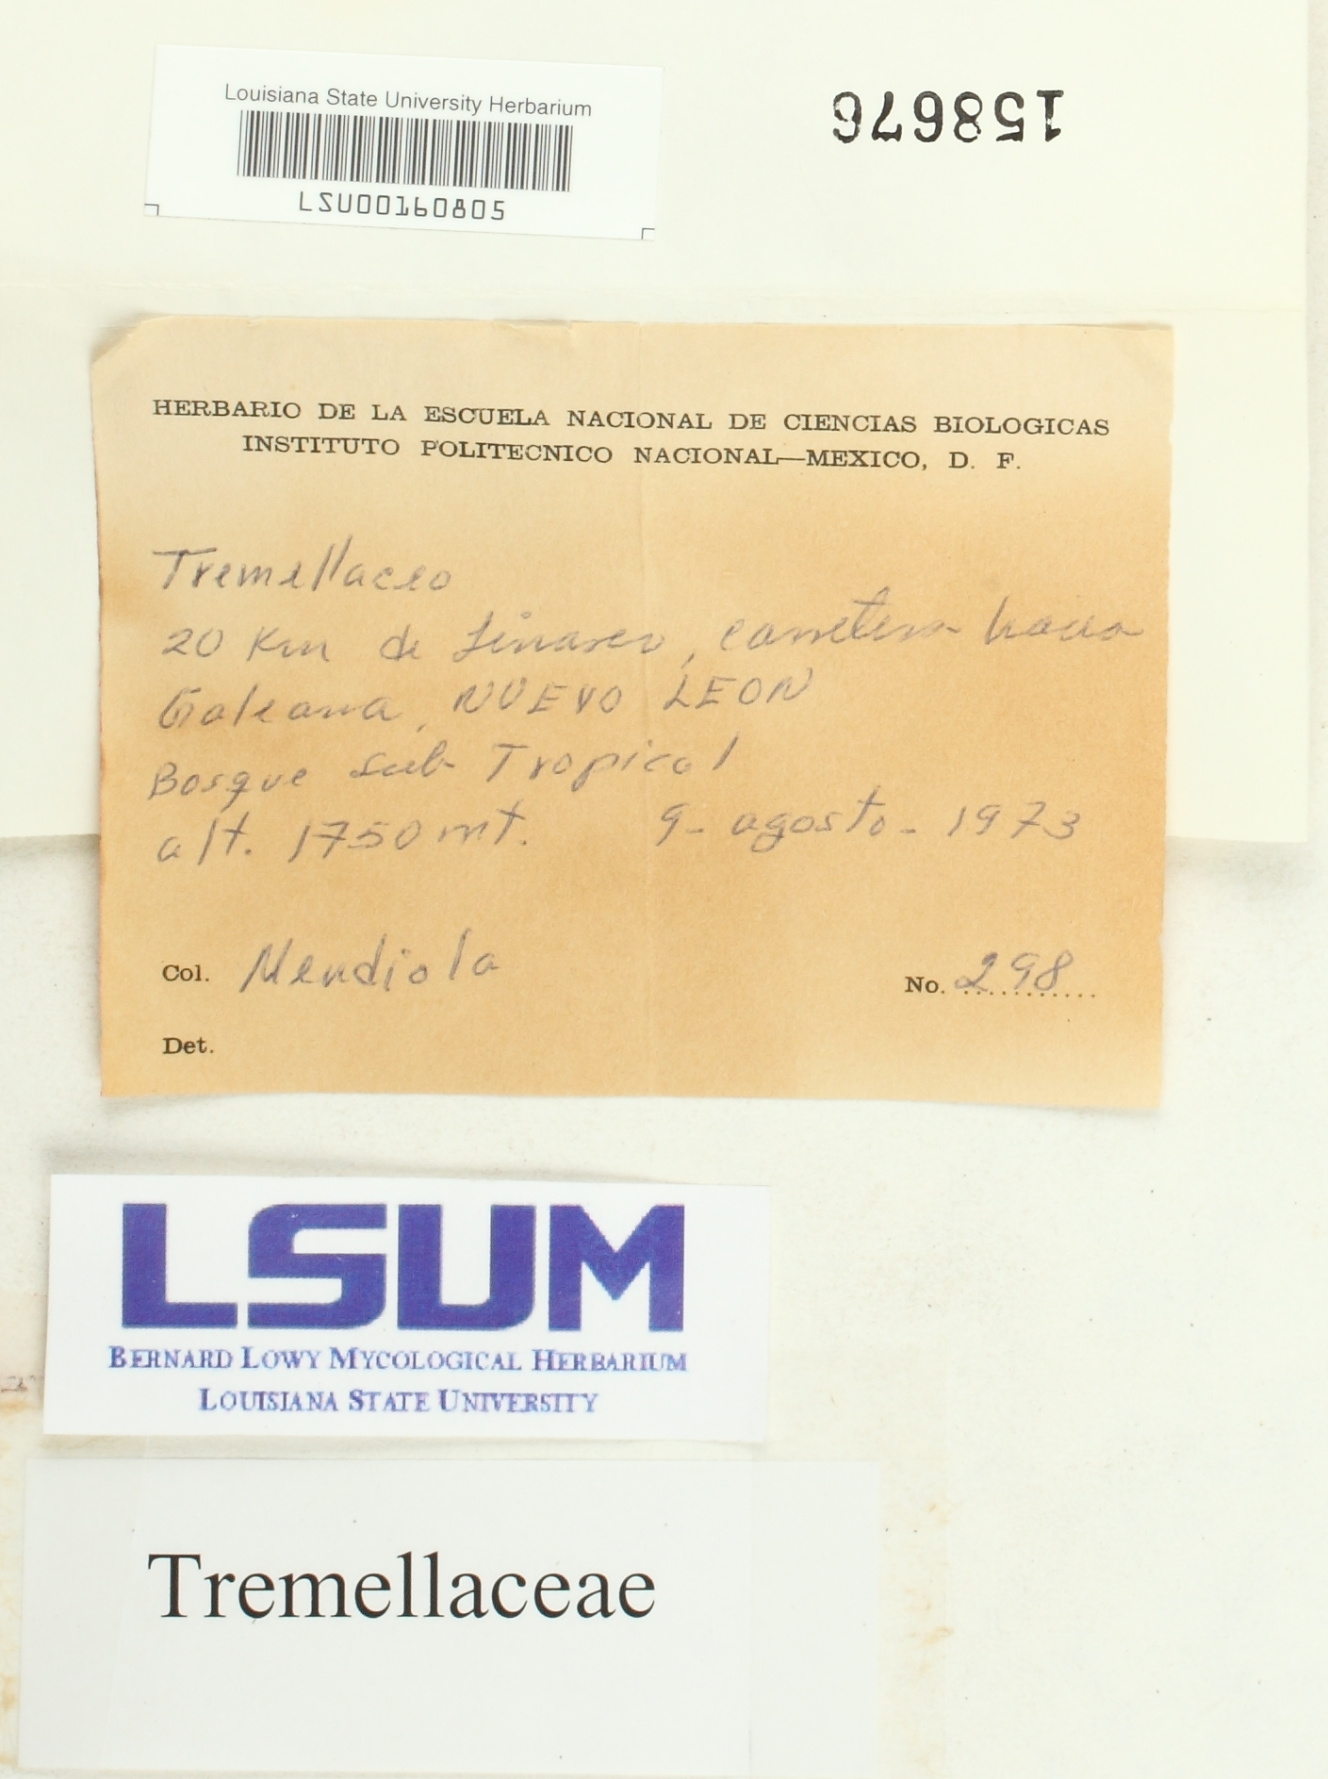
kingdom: Fungi
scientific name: Fungi
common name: Fungi
